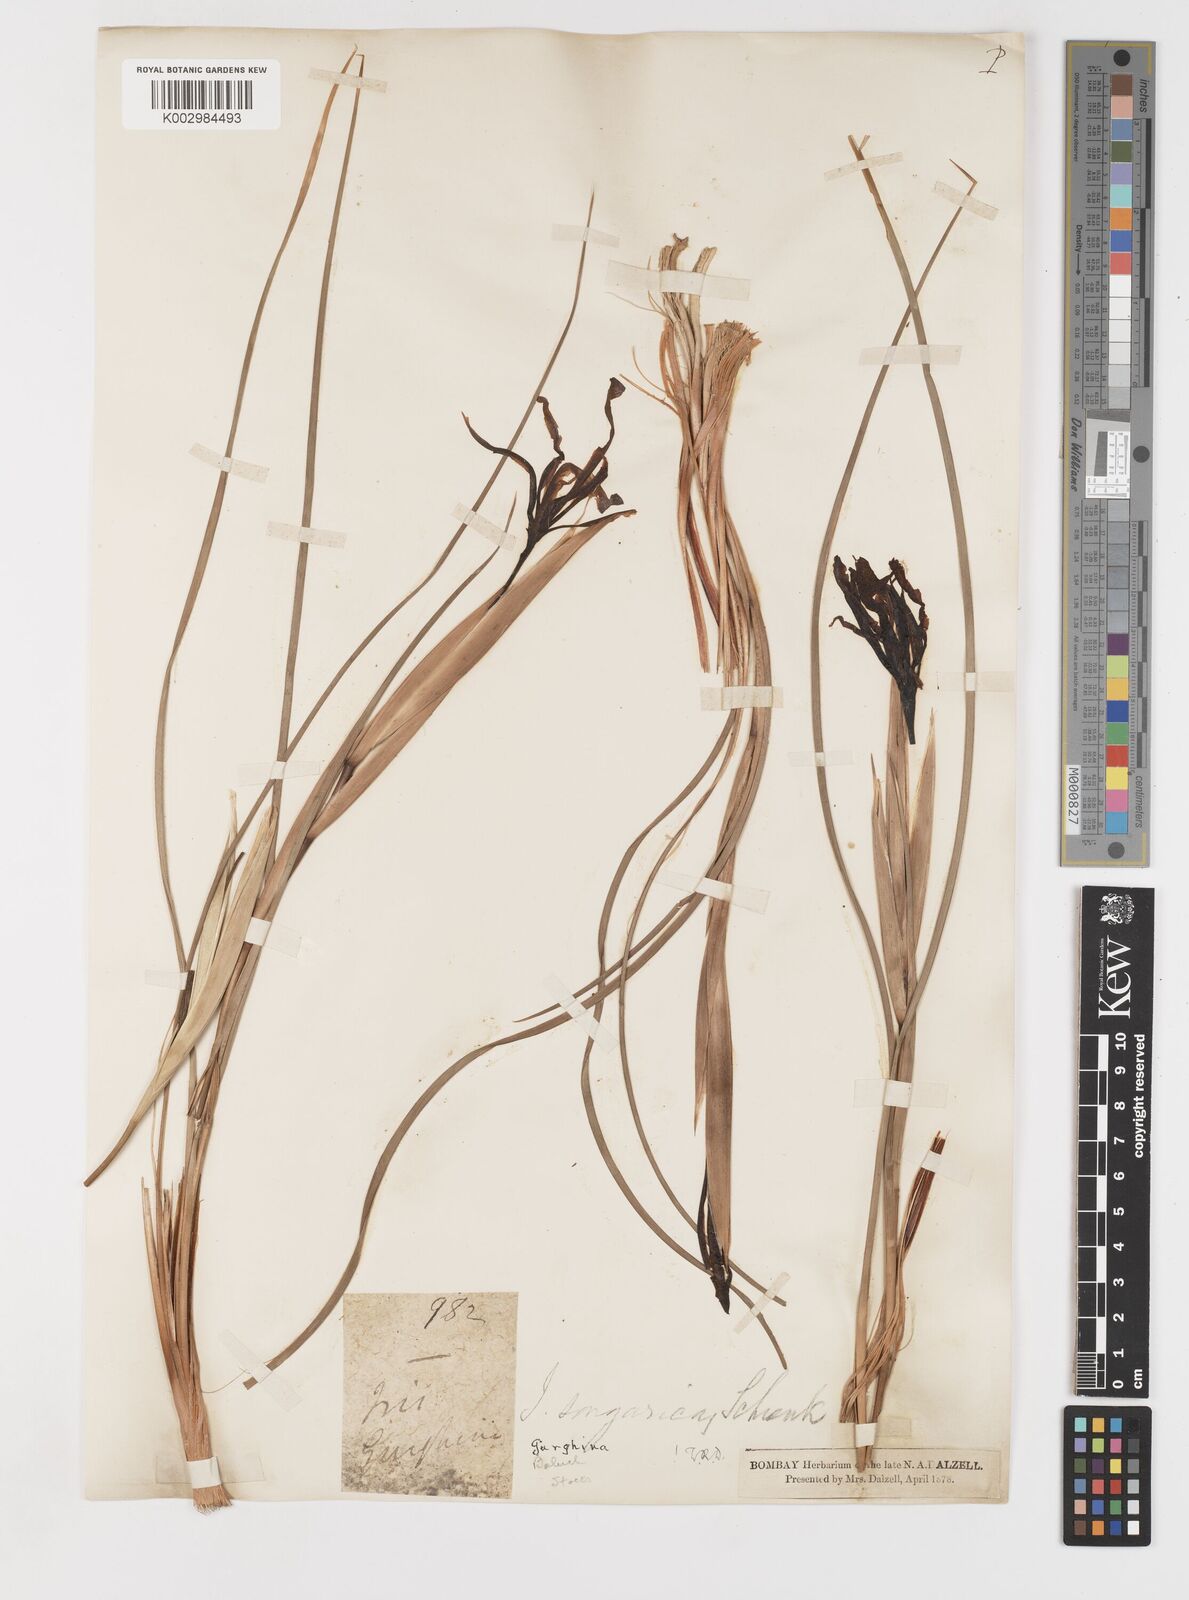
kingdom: Plantae
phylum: Tracheophyta
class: Liliopsida
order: Asparagales
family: Iridaceae
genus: Iris
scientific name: Iris songarica
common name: Songar iris
